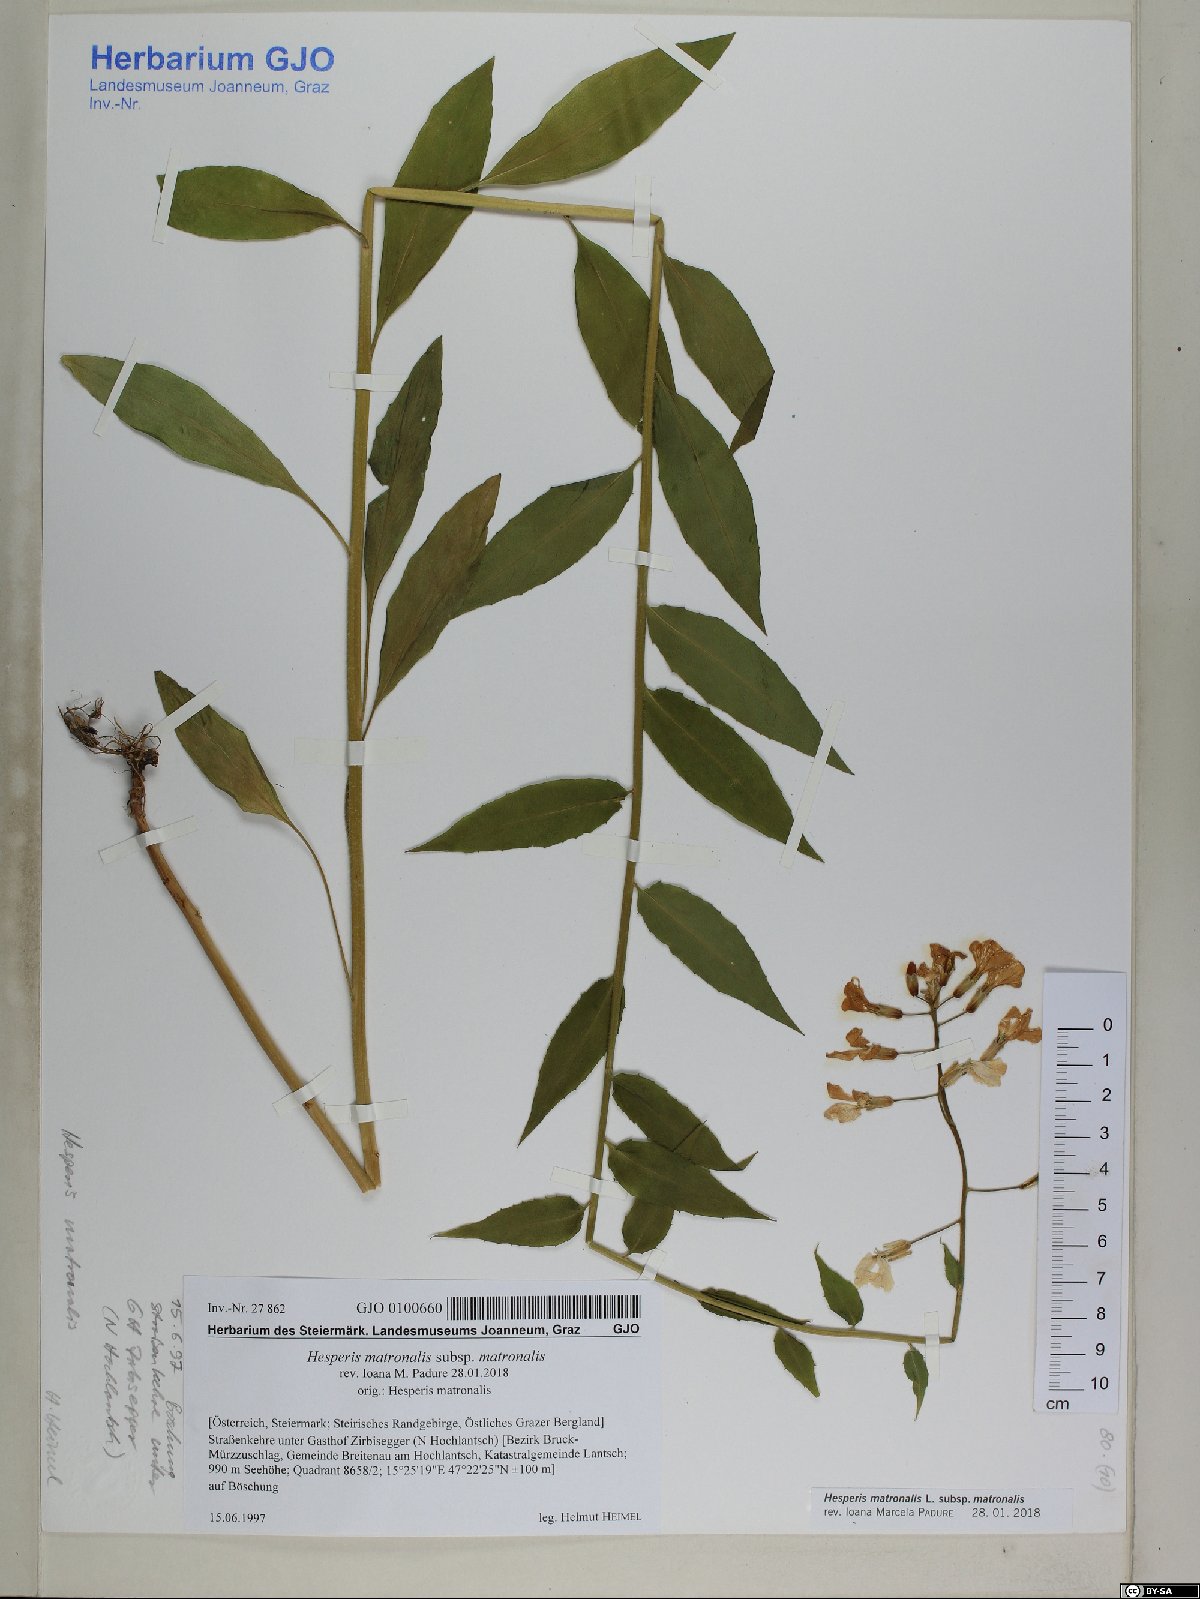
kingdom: Plantae
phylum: Tracheophyta
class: Magnoliopsida
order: Brassicales
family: Brassicaceae
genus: Hesperis
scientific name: Hesperis matronalis
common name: Dame's-violet
